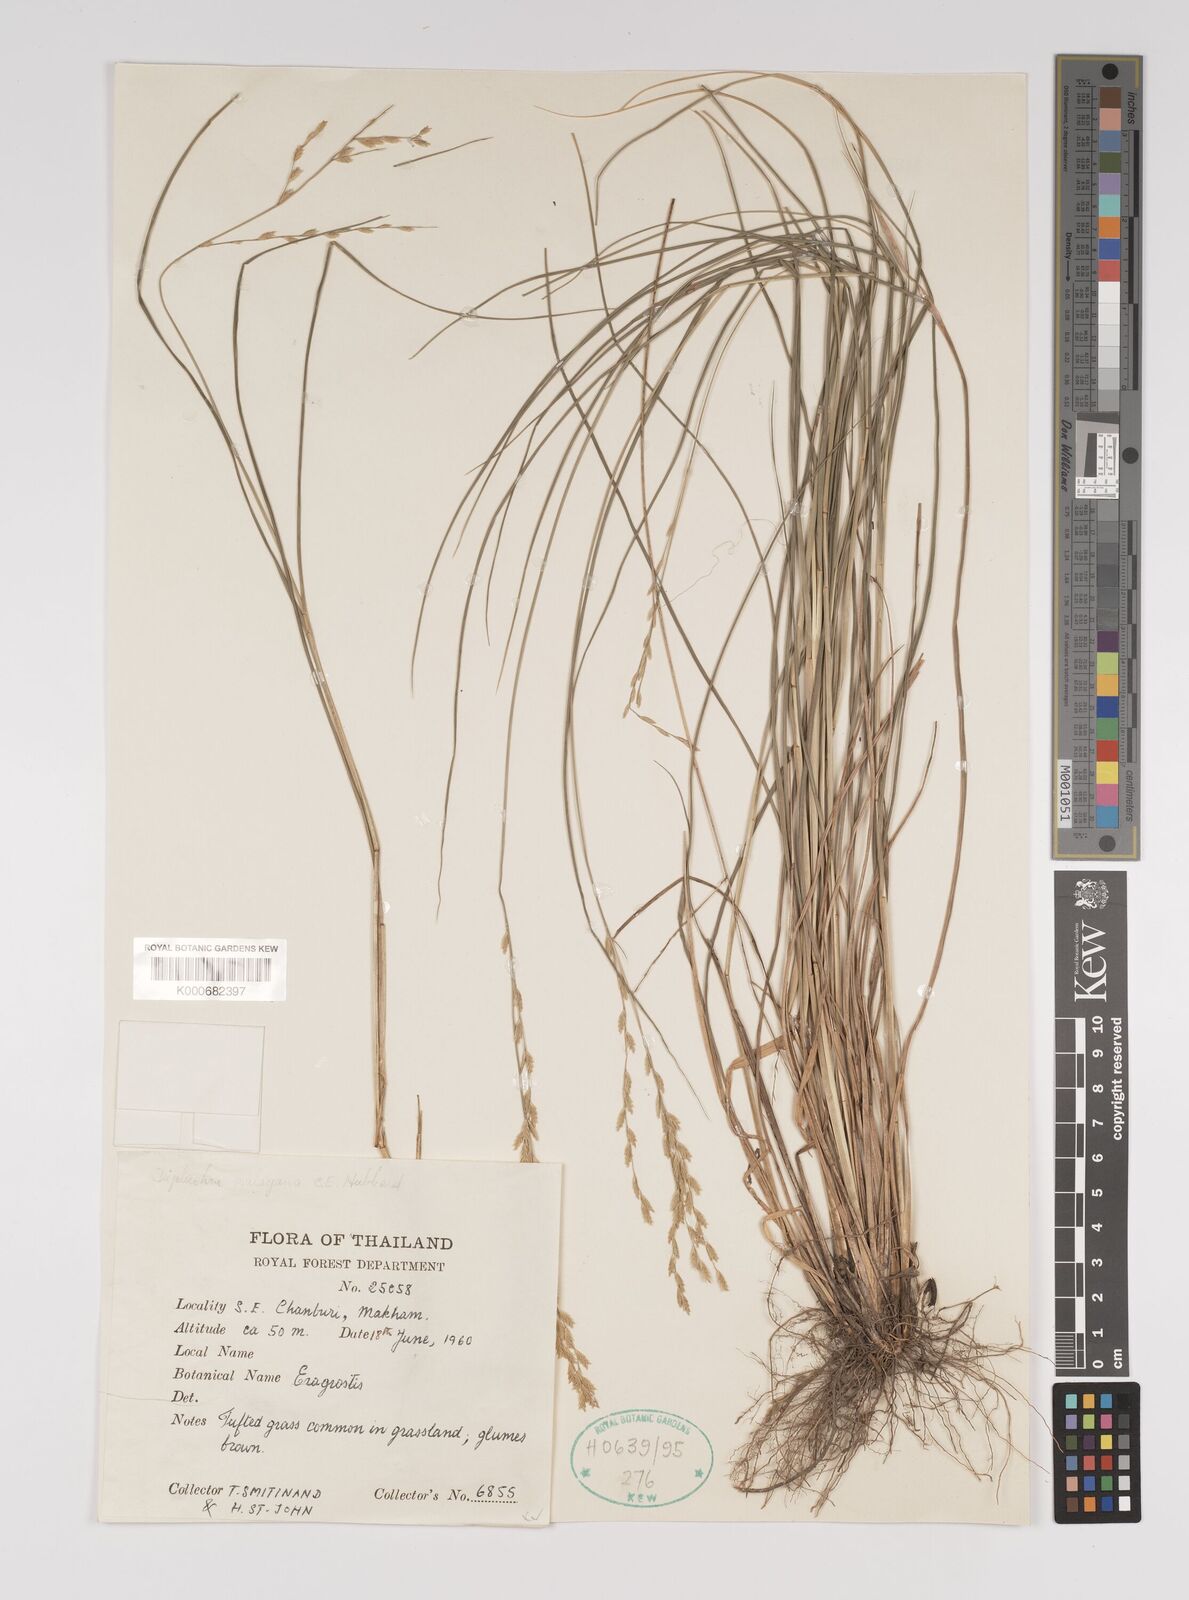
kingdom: Plantae
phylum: Tracheophyta
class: Liliopsida
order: Poales
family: Poaceae
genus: Leptochloa
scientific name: Leptochloa malayana
